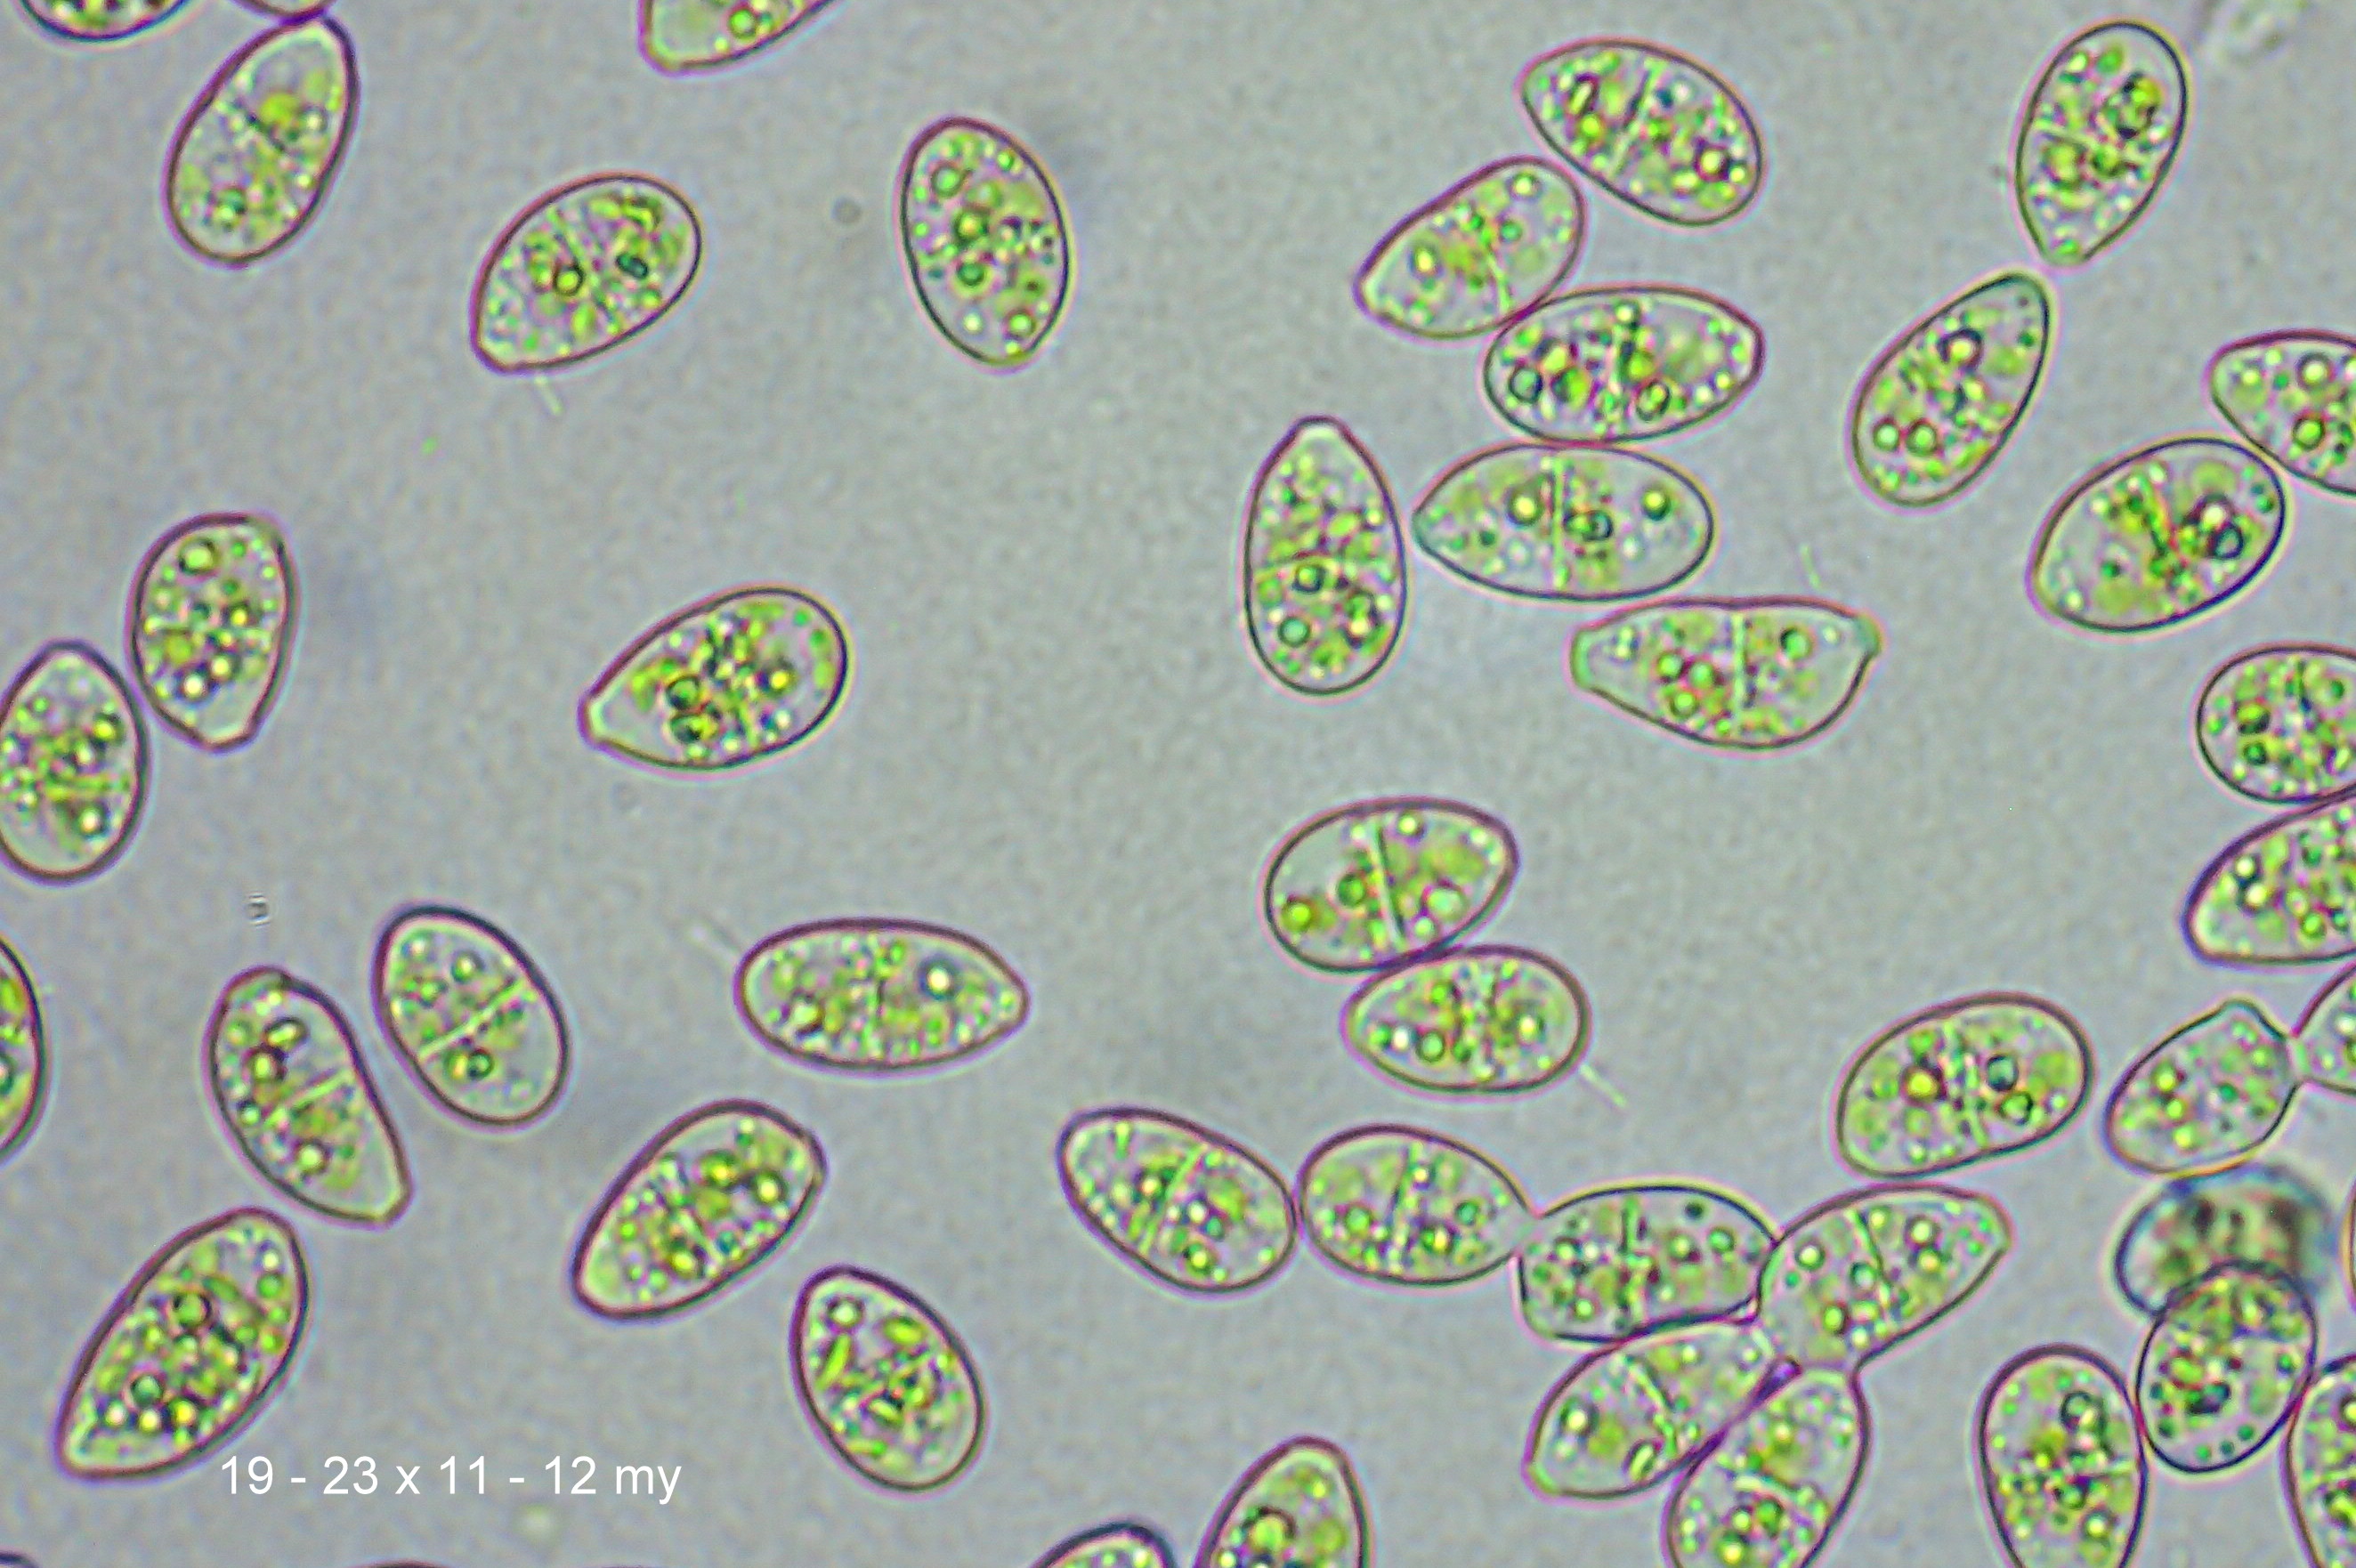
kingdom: Plantae
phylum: Marchantiophyta
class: Jungermanniopsida
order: Jungermanniales
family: Scapaniaceae
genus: Scapania
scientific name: Scapania irrigua
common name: Kær-tveblad
